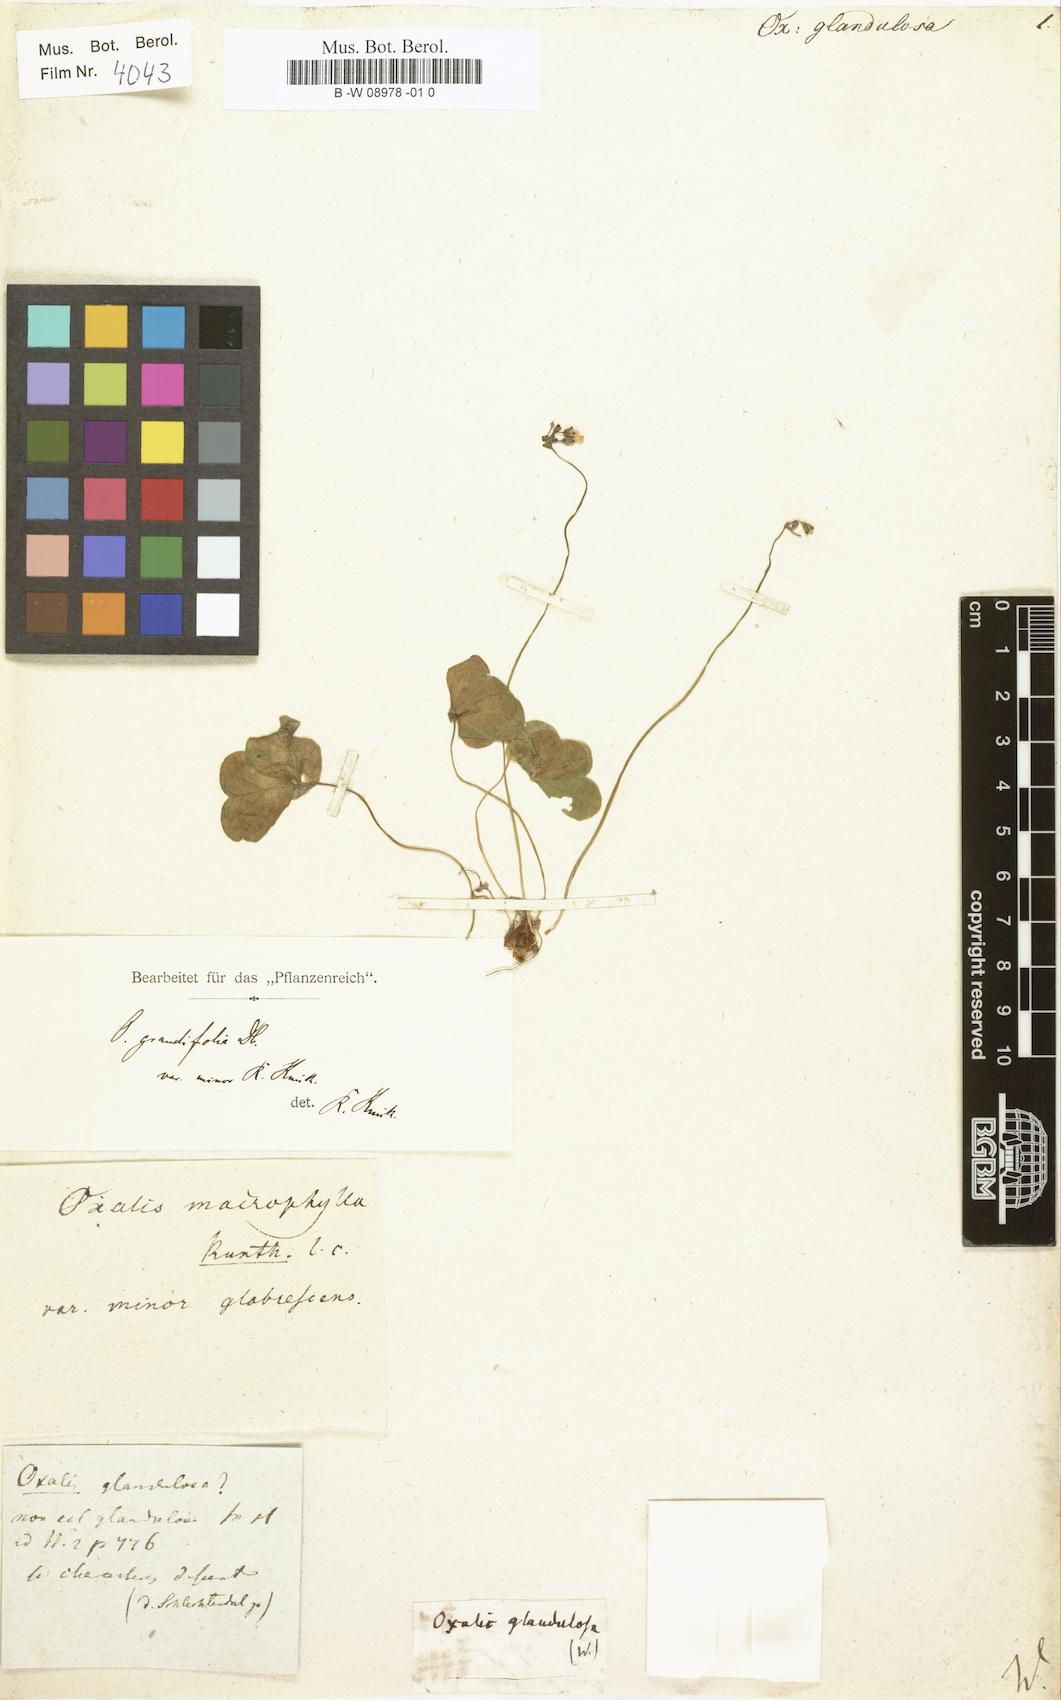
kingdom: Plantae
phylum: Tracheophyta
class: Magnoliopsida
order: Oxalidales
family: Oxalidaceae
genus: Oxalis
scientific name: Oxalis
